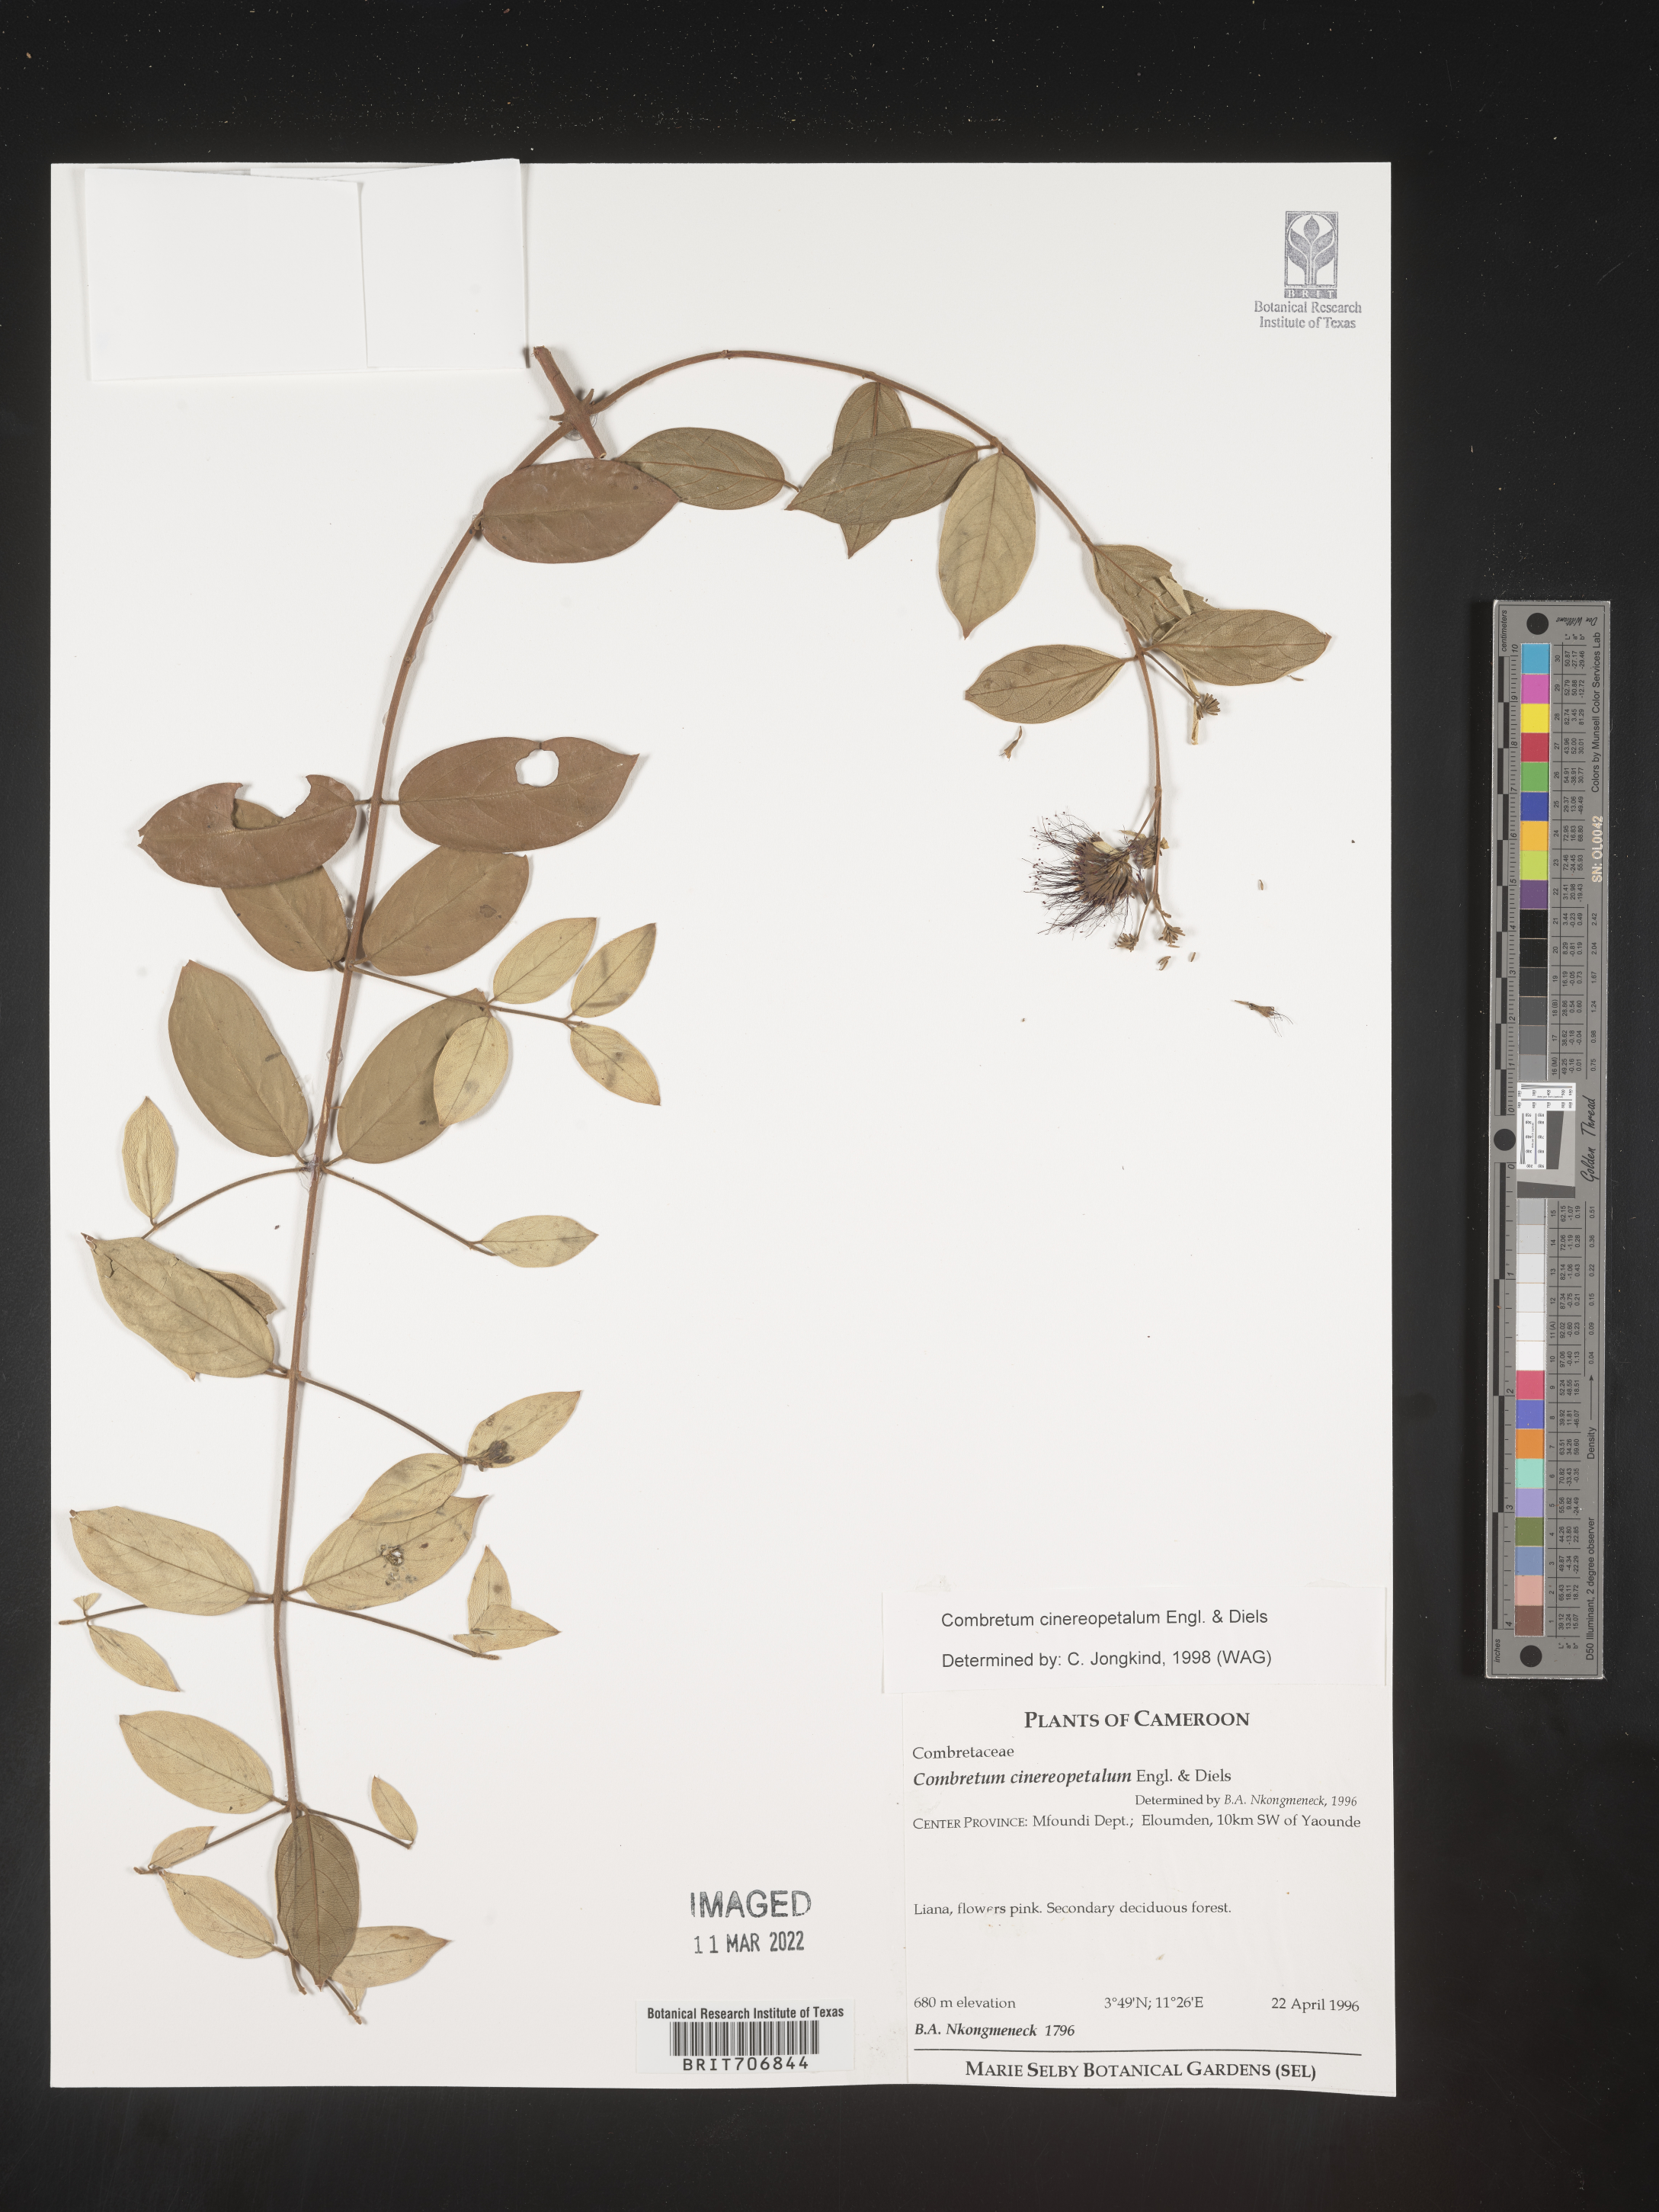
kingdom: Plantae
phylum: Tracheophyta
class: Magnoliopsida
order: Myrtales
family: Combretaceae
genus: Combretum
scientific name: Combretum
